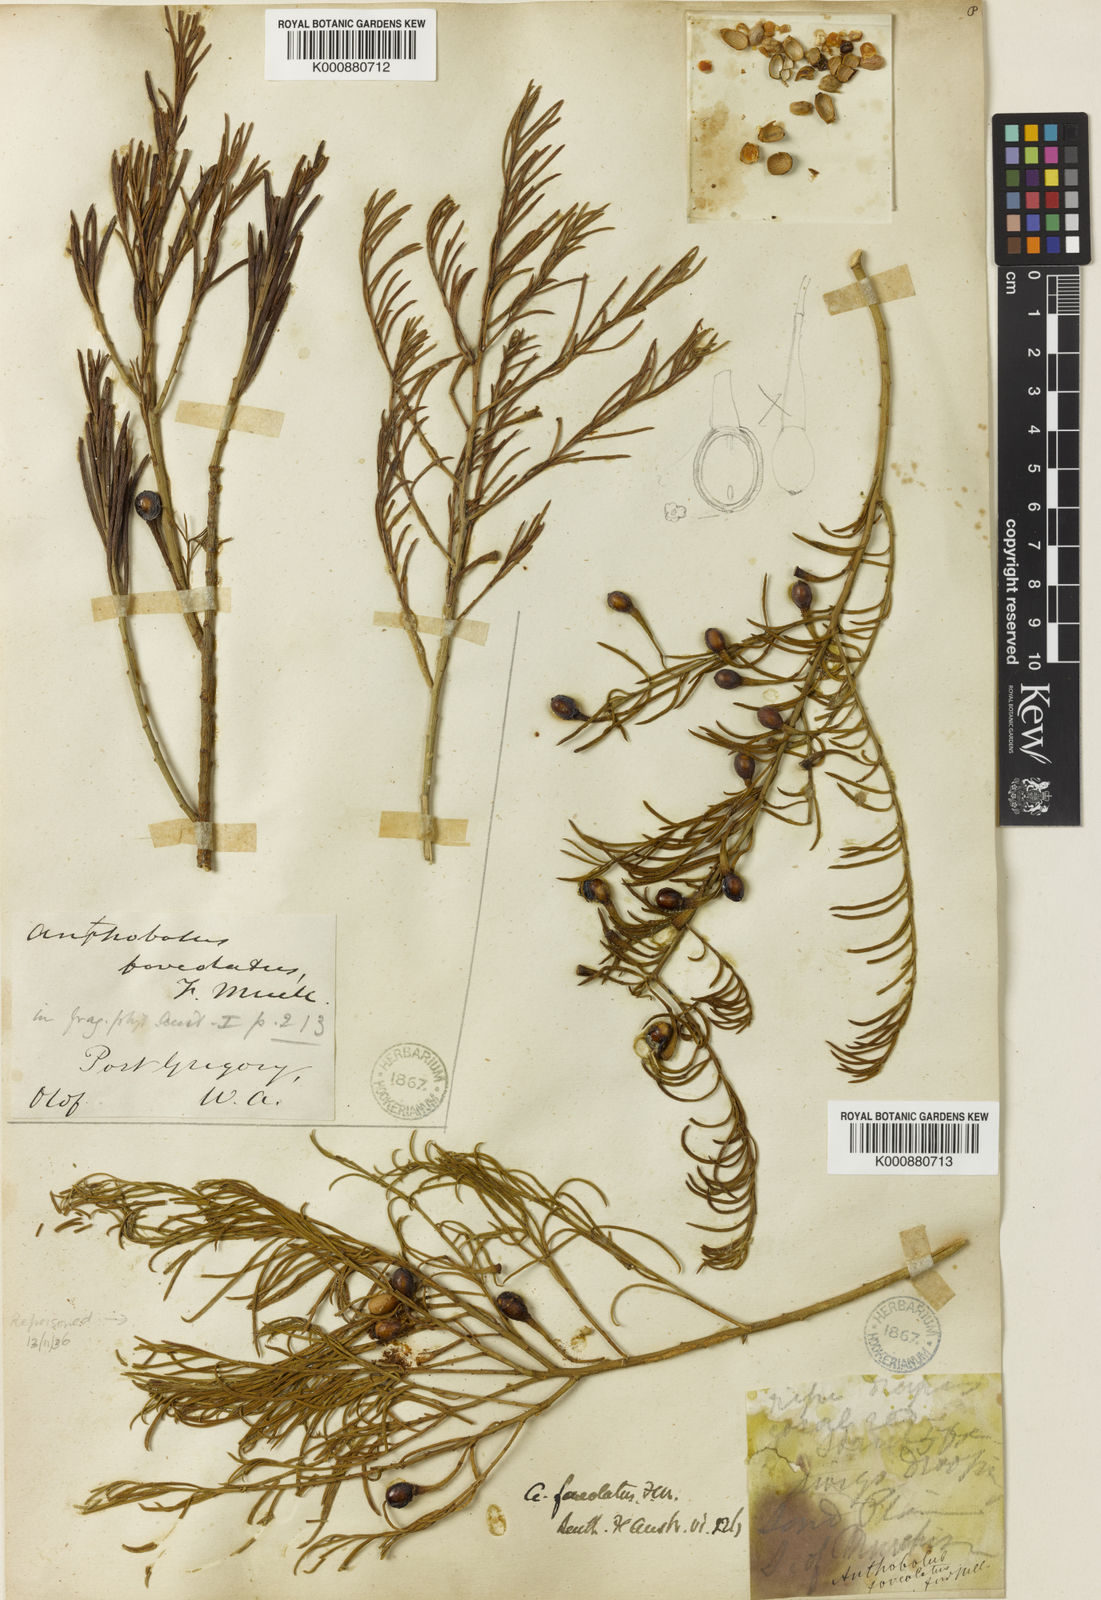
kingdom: Plantae
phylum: Tracheophyta
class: Magnoliopsida
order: Santalales
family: Opiliaceae
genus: Anthobolus
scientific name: Anthobolus foveolatus
